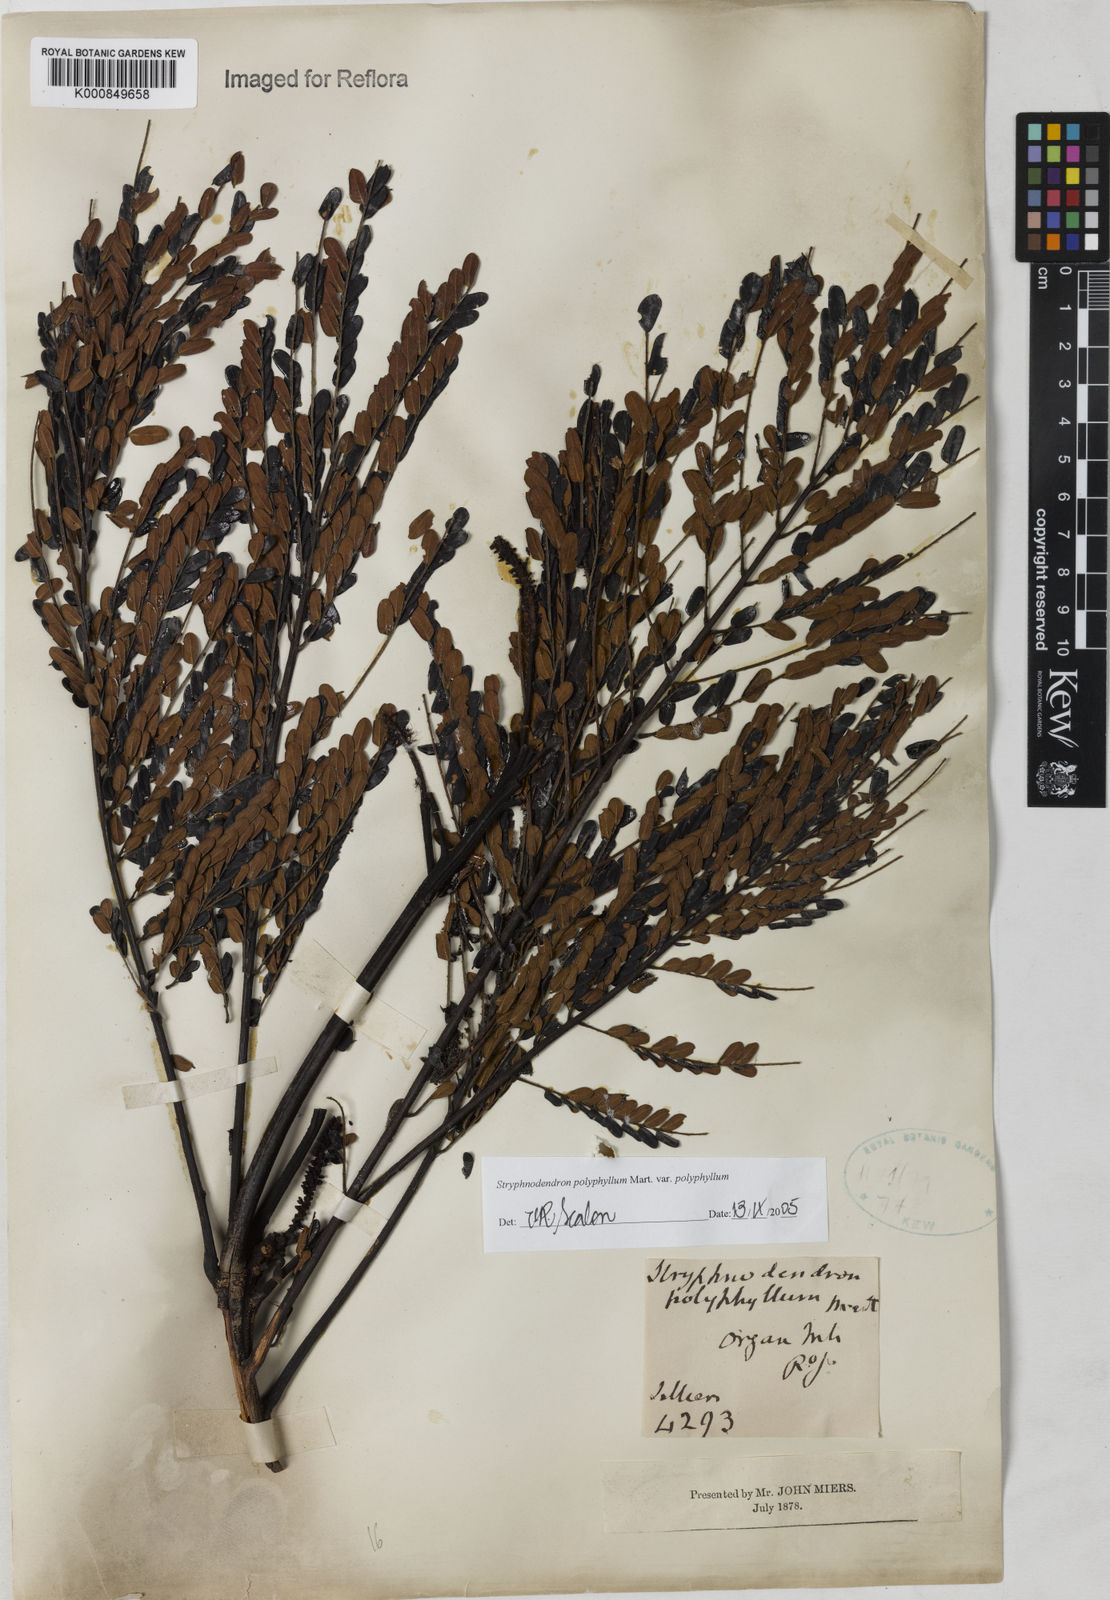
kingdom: Plantae
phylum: Tracheophyta
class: Magnoliopsida
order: Fabales
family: Fabaceae
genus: Stryphnodendron
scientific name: Stryphnodendron polyphyllum
